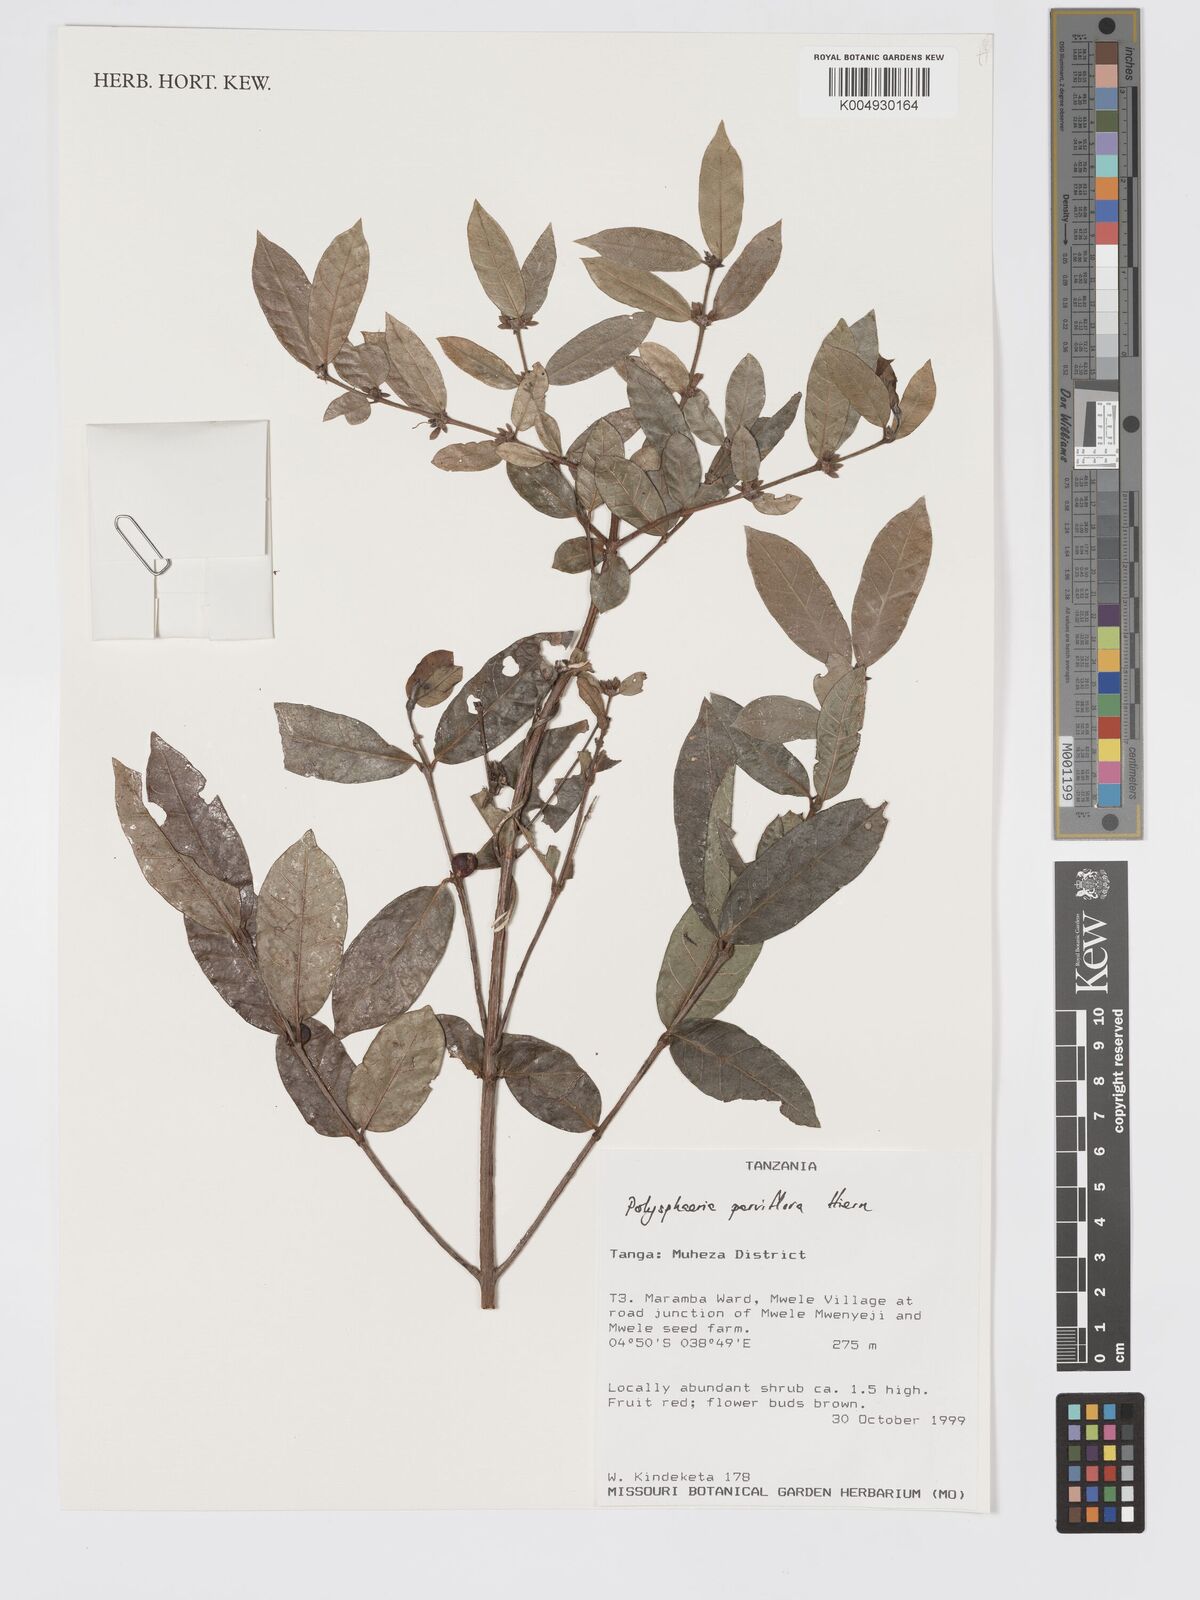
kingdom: Plantae
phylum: Tracheophyta
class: Magnoliopsida
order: Gentianales
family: Rubiaceae
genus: Polysphaeria
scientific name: Polysphaeria parvifolia
